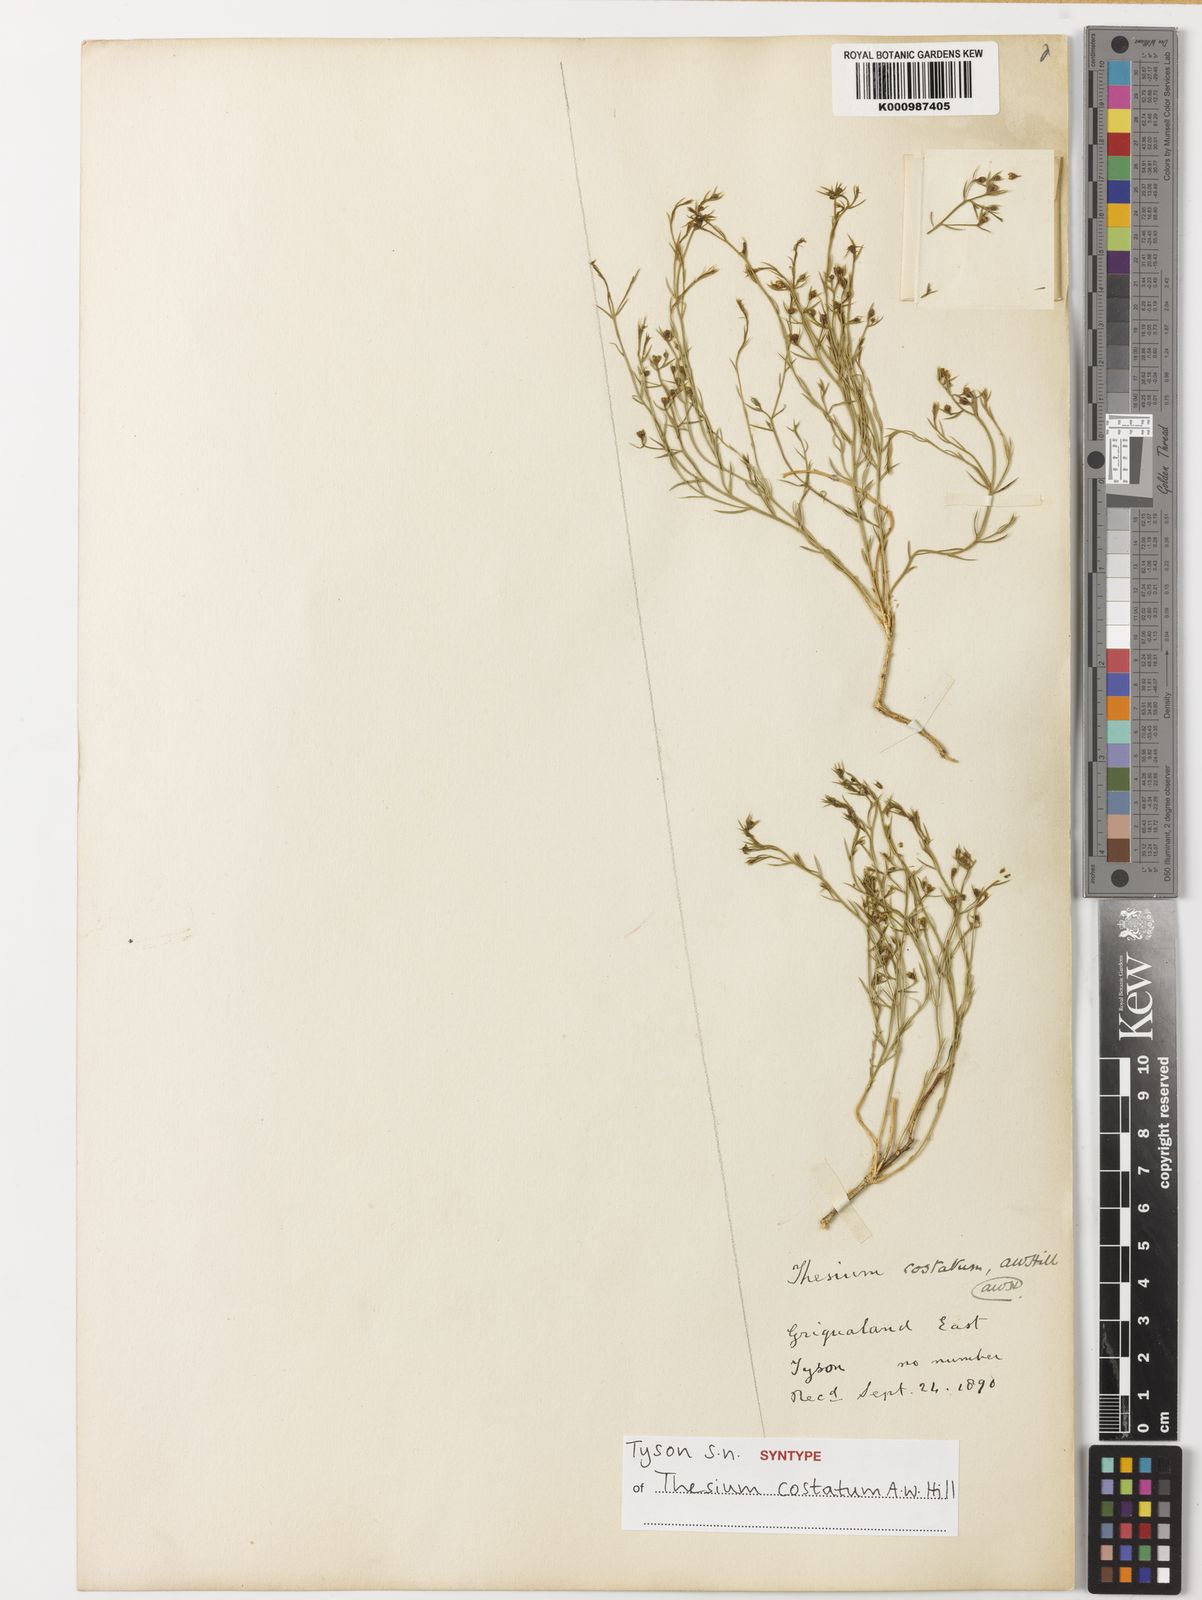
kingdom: Plantae
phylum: Tracheophyta
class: Magnoliopsida
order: Santalales
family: Thesiaceae
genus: Thesium
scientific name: Thesium costatum
